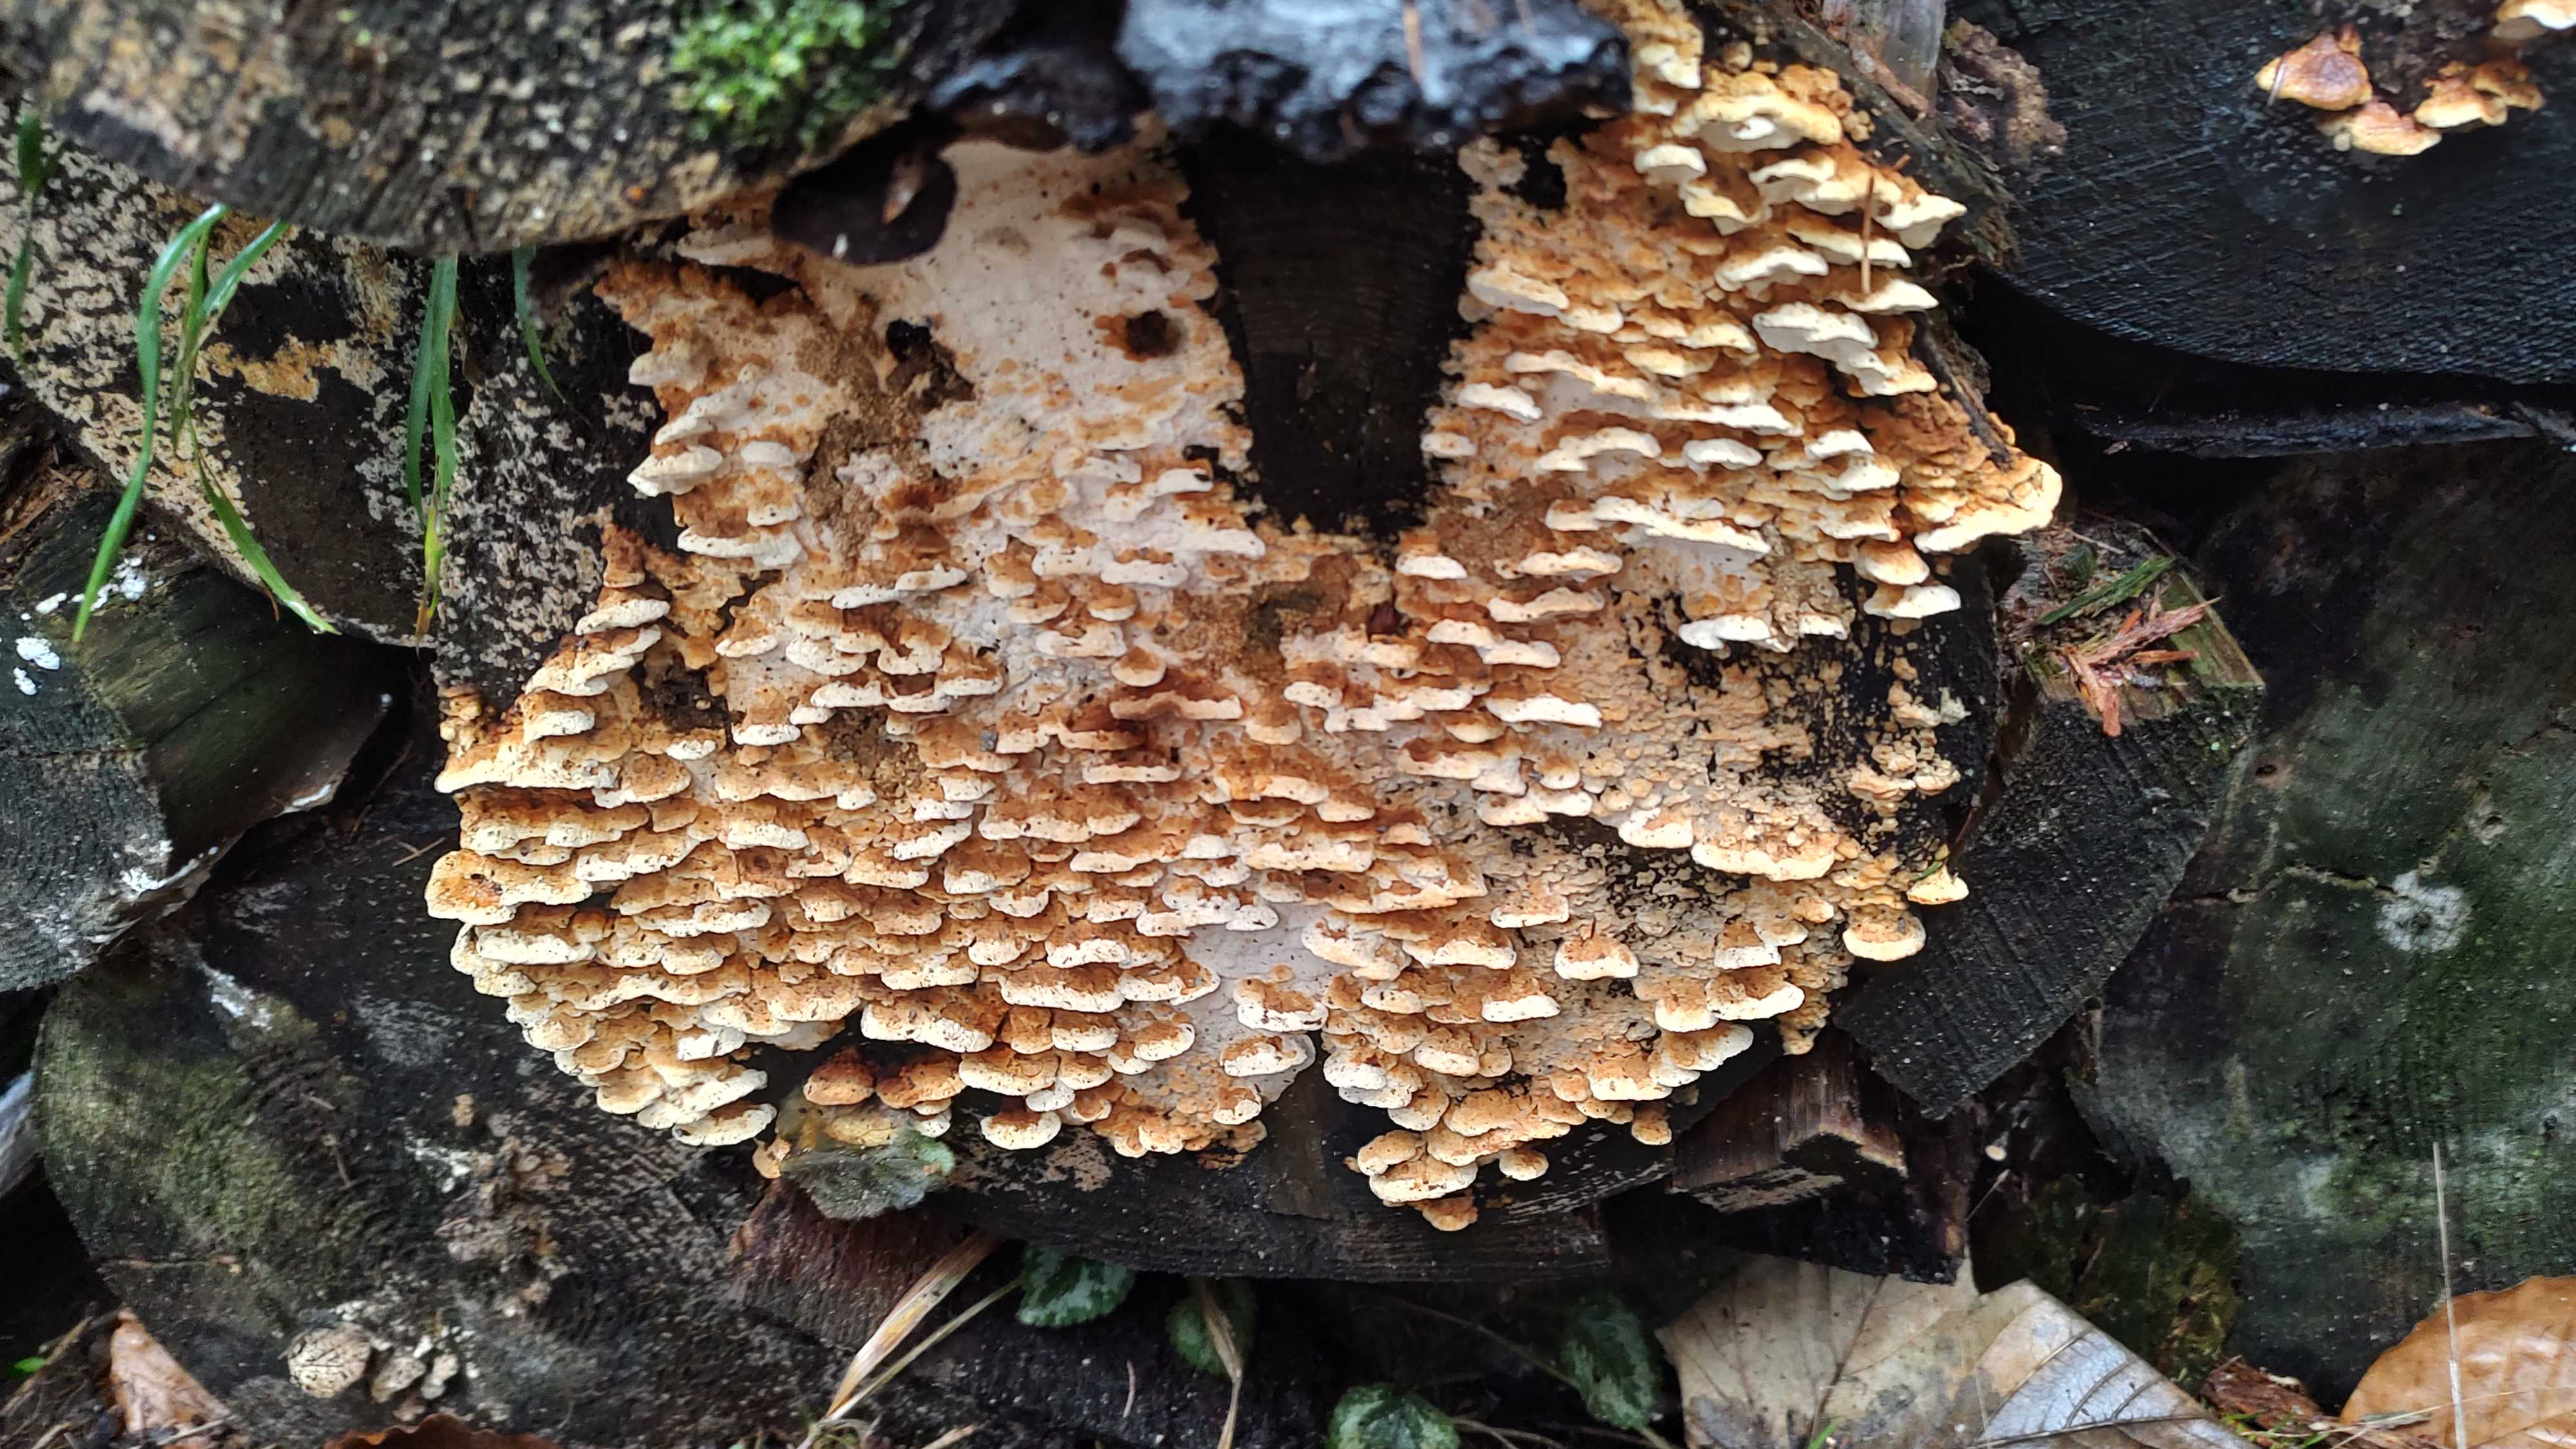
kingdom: Fungi
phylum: Basidiomycota
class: Agaricomycetes
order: Polyporales
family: Fomitopsidaceae
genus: Neoantrodia
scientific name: Neoantrodia serialis
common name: række-sejporesvamp
